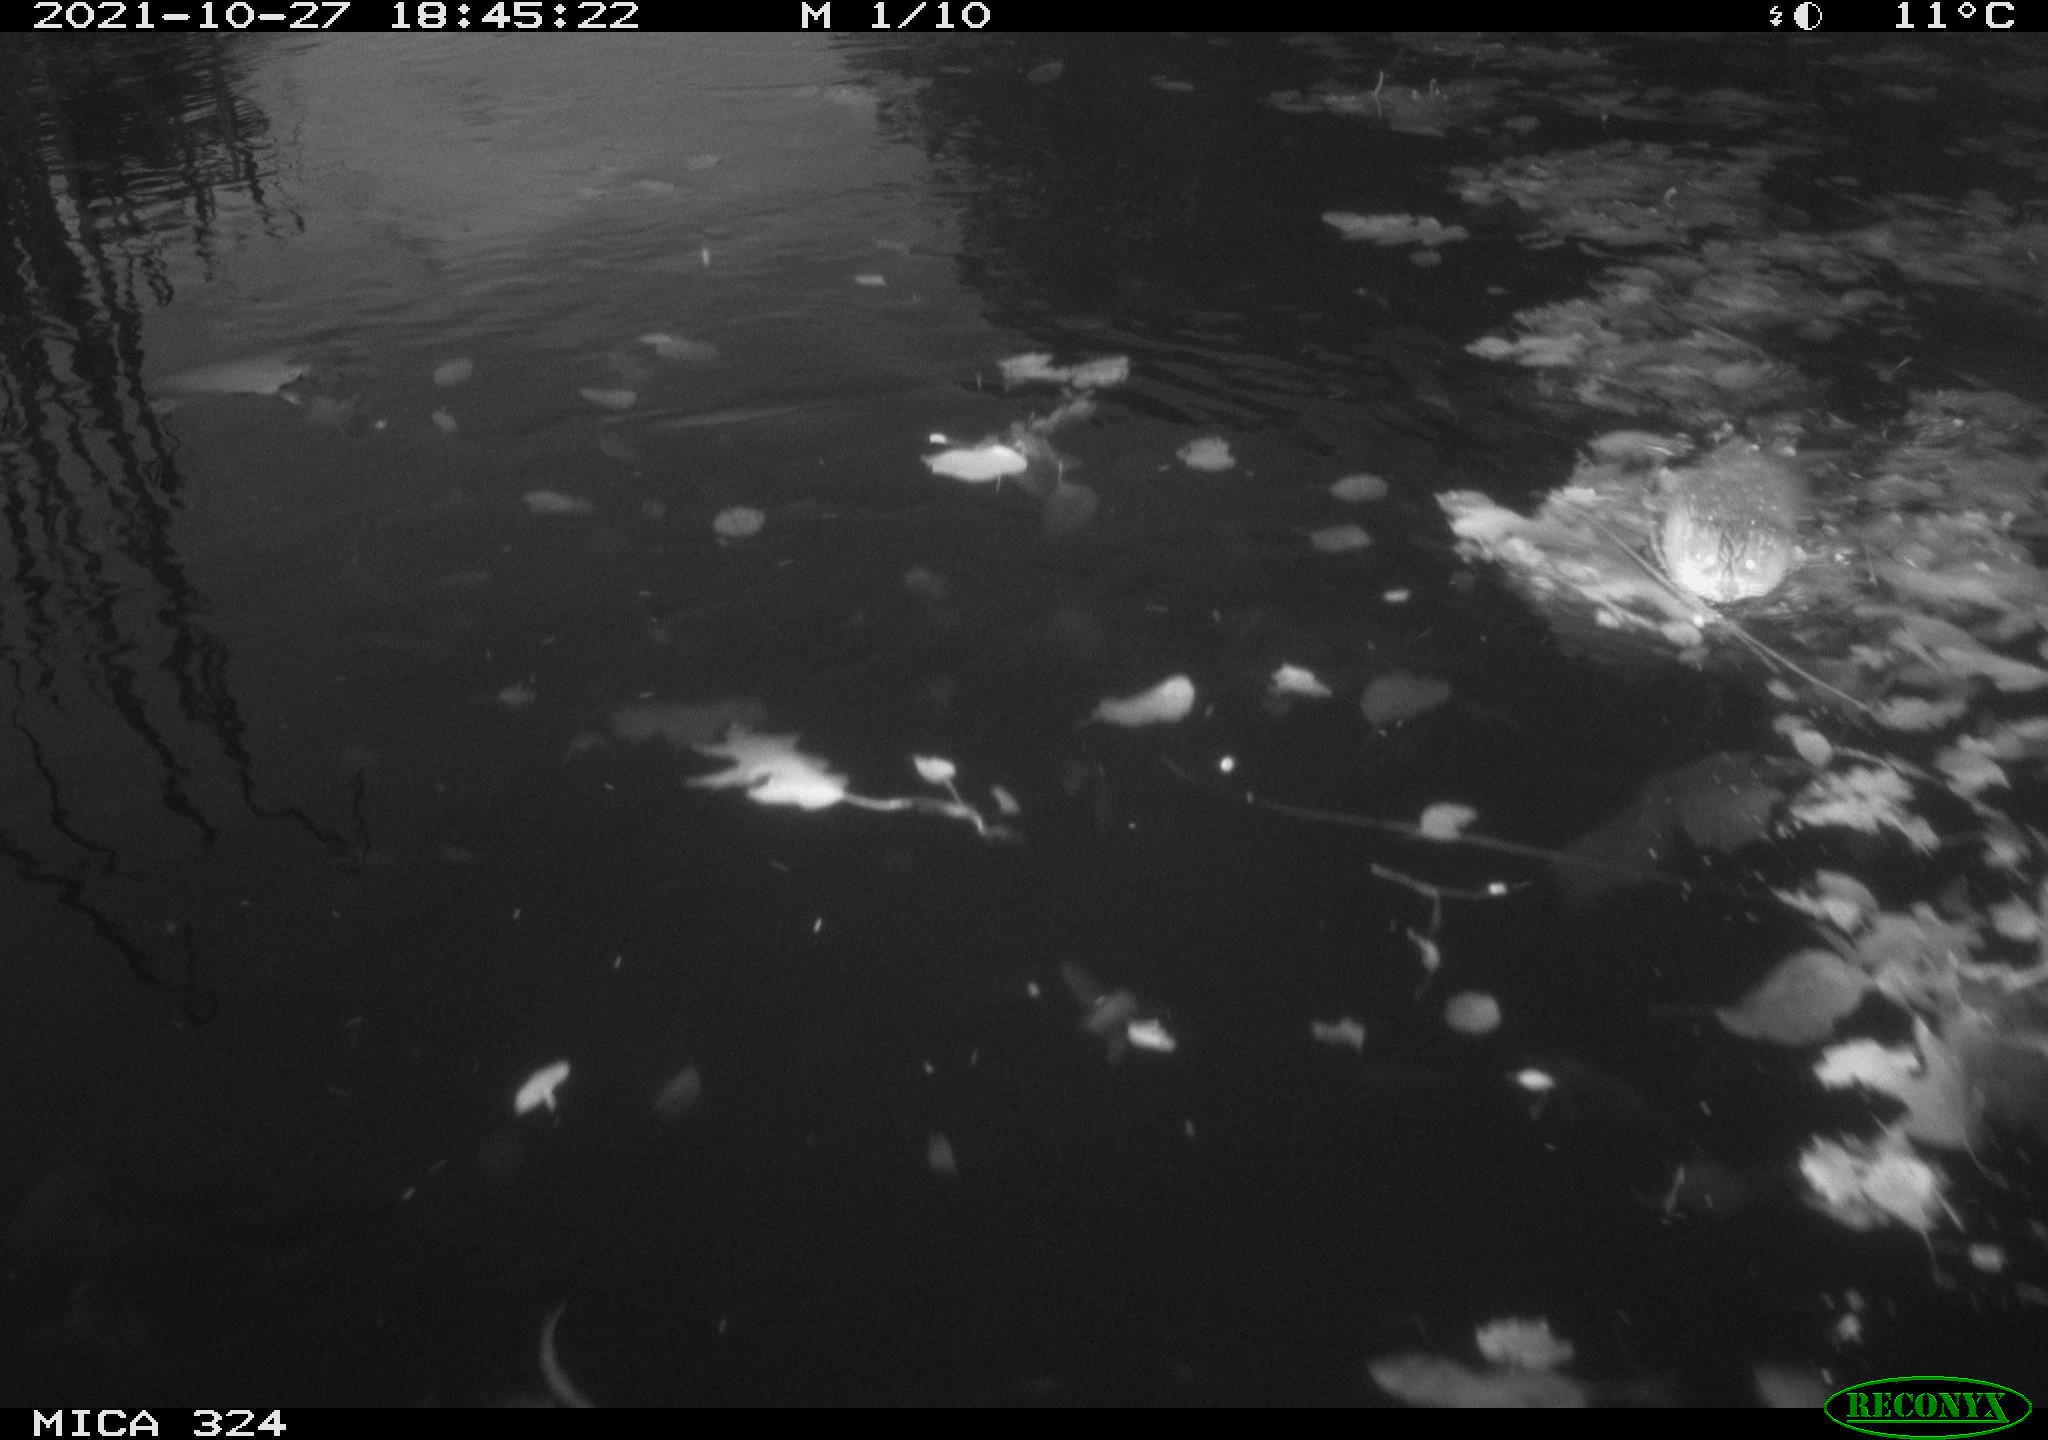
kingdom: Animalia
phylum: Chordata
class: Mammalia
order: Rodentia
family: Cricetidae
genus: Ondatra
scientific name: Ondatra zibethicus
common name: Muskrat
